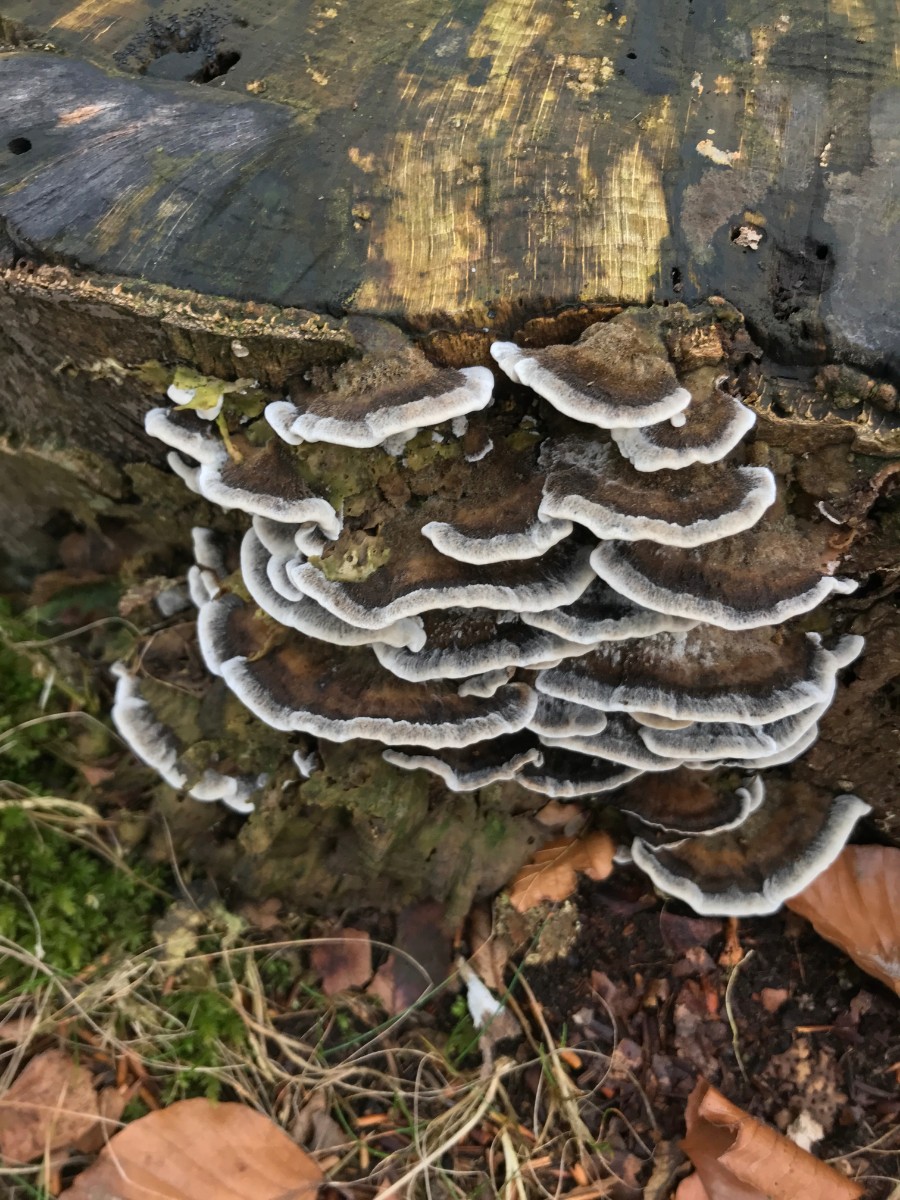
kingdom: Fungi
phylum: Basidiomycota
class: Agaricomycetes
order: Polyporales
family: Phanerochaetaceae
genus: Bjerkandera
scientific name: Bjerkandera adusta
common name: sveden sodporesvamp
